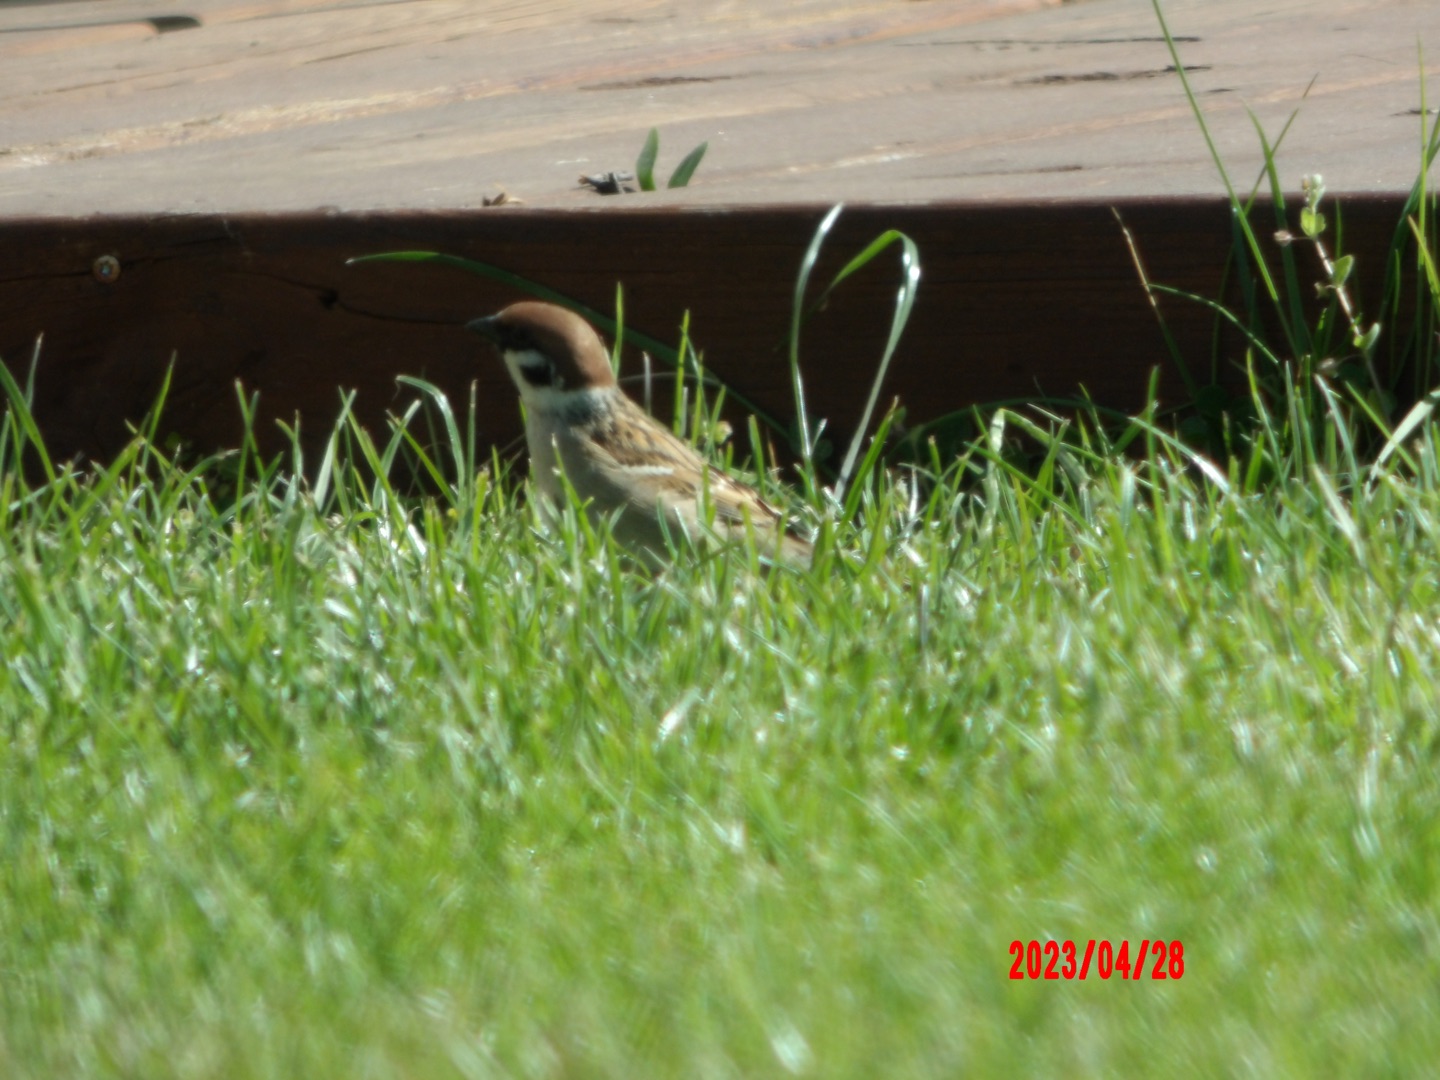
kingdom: Animalia
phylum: Chordata
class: Aves
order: Passeriformes
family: Passeridae
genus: Passer
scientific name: Passer montanus
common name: Skovspurv
